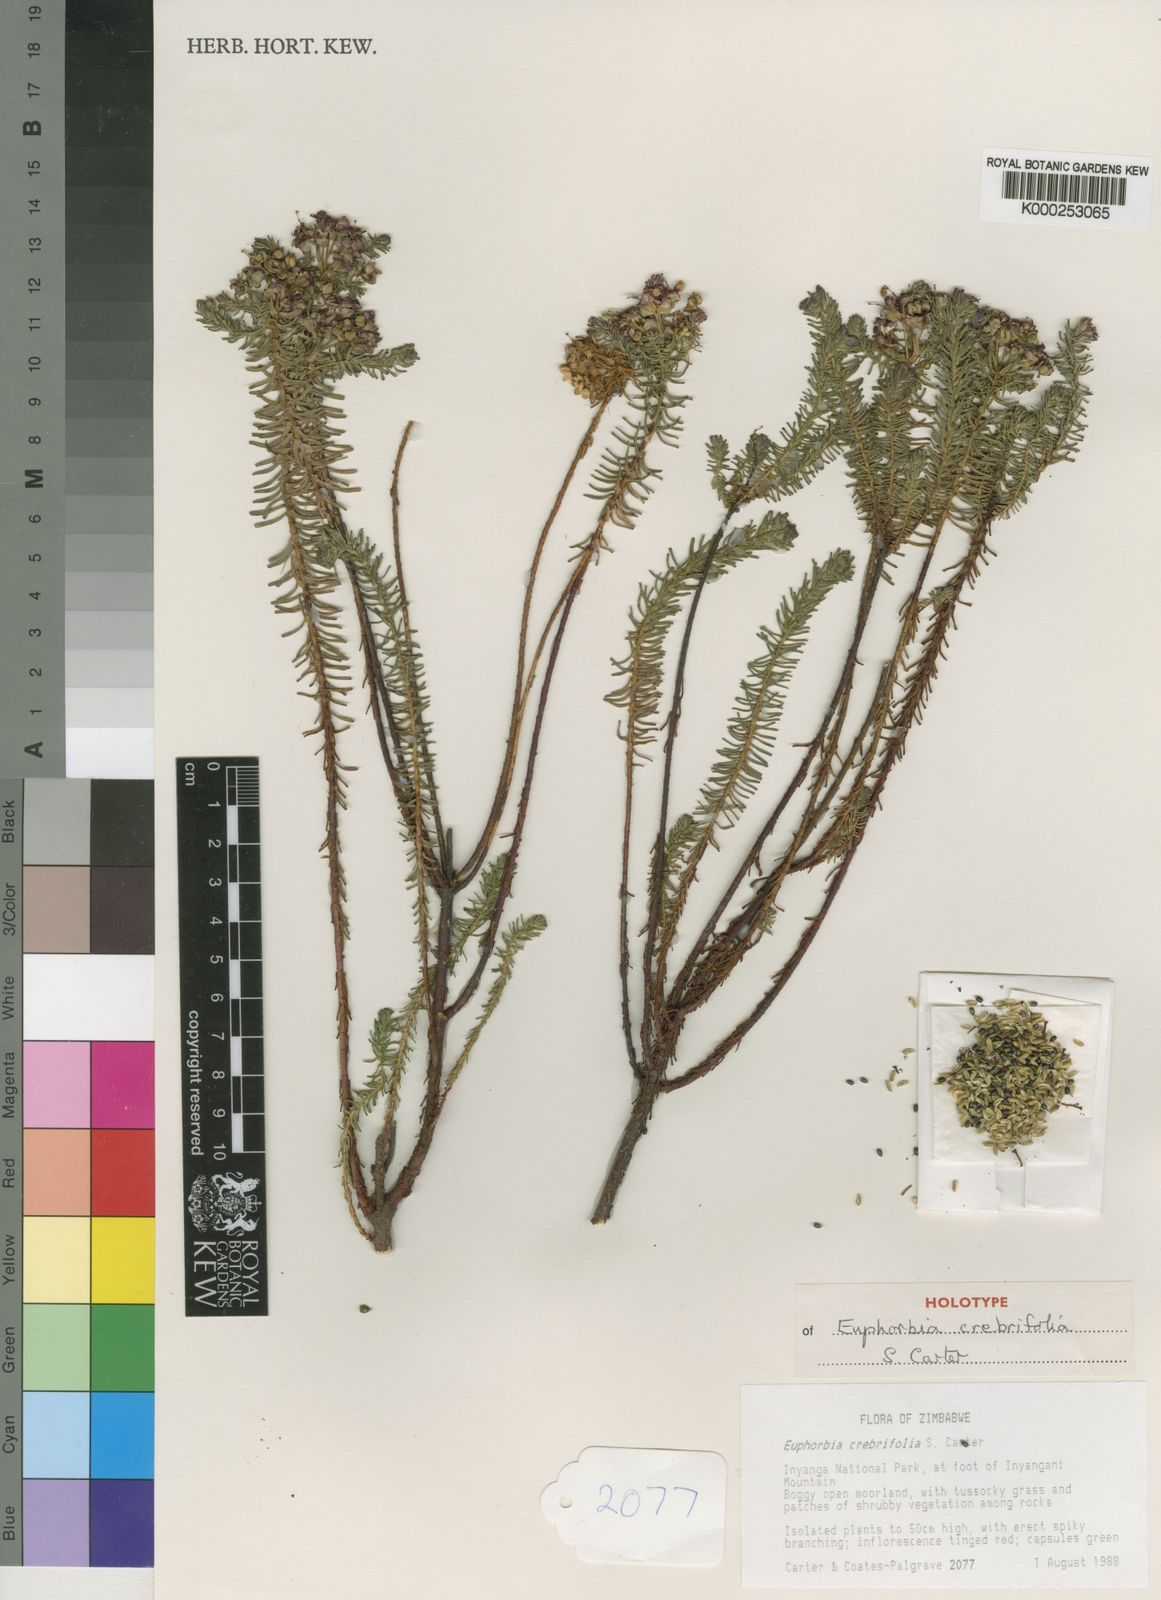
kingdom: Plantae
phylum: Tracheophyta
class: Magnoliopsida
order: Malpighiales
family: Euphorbiaceae
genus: Euphorbia
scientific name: Euphorbia natalensis
